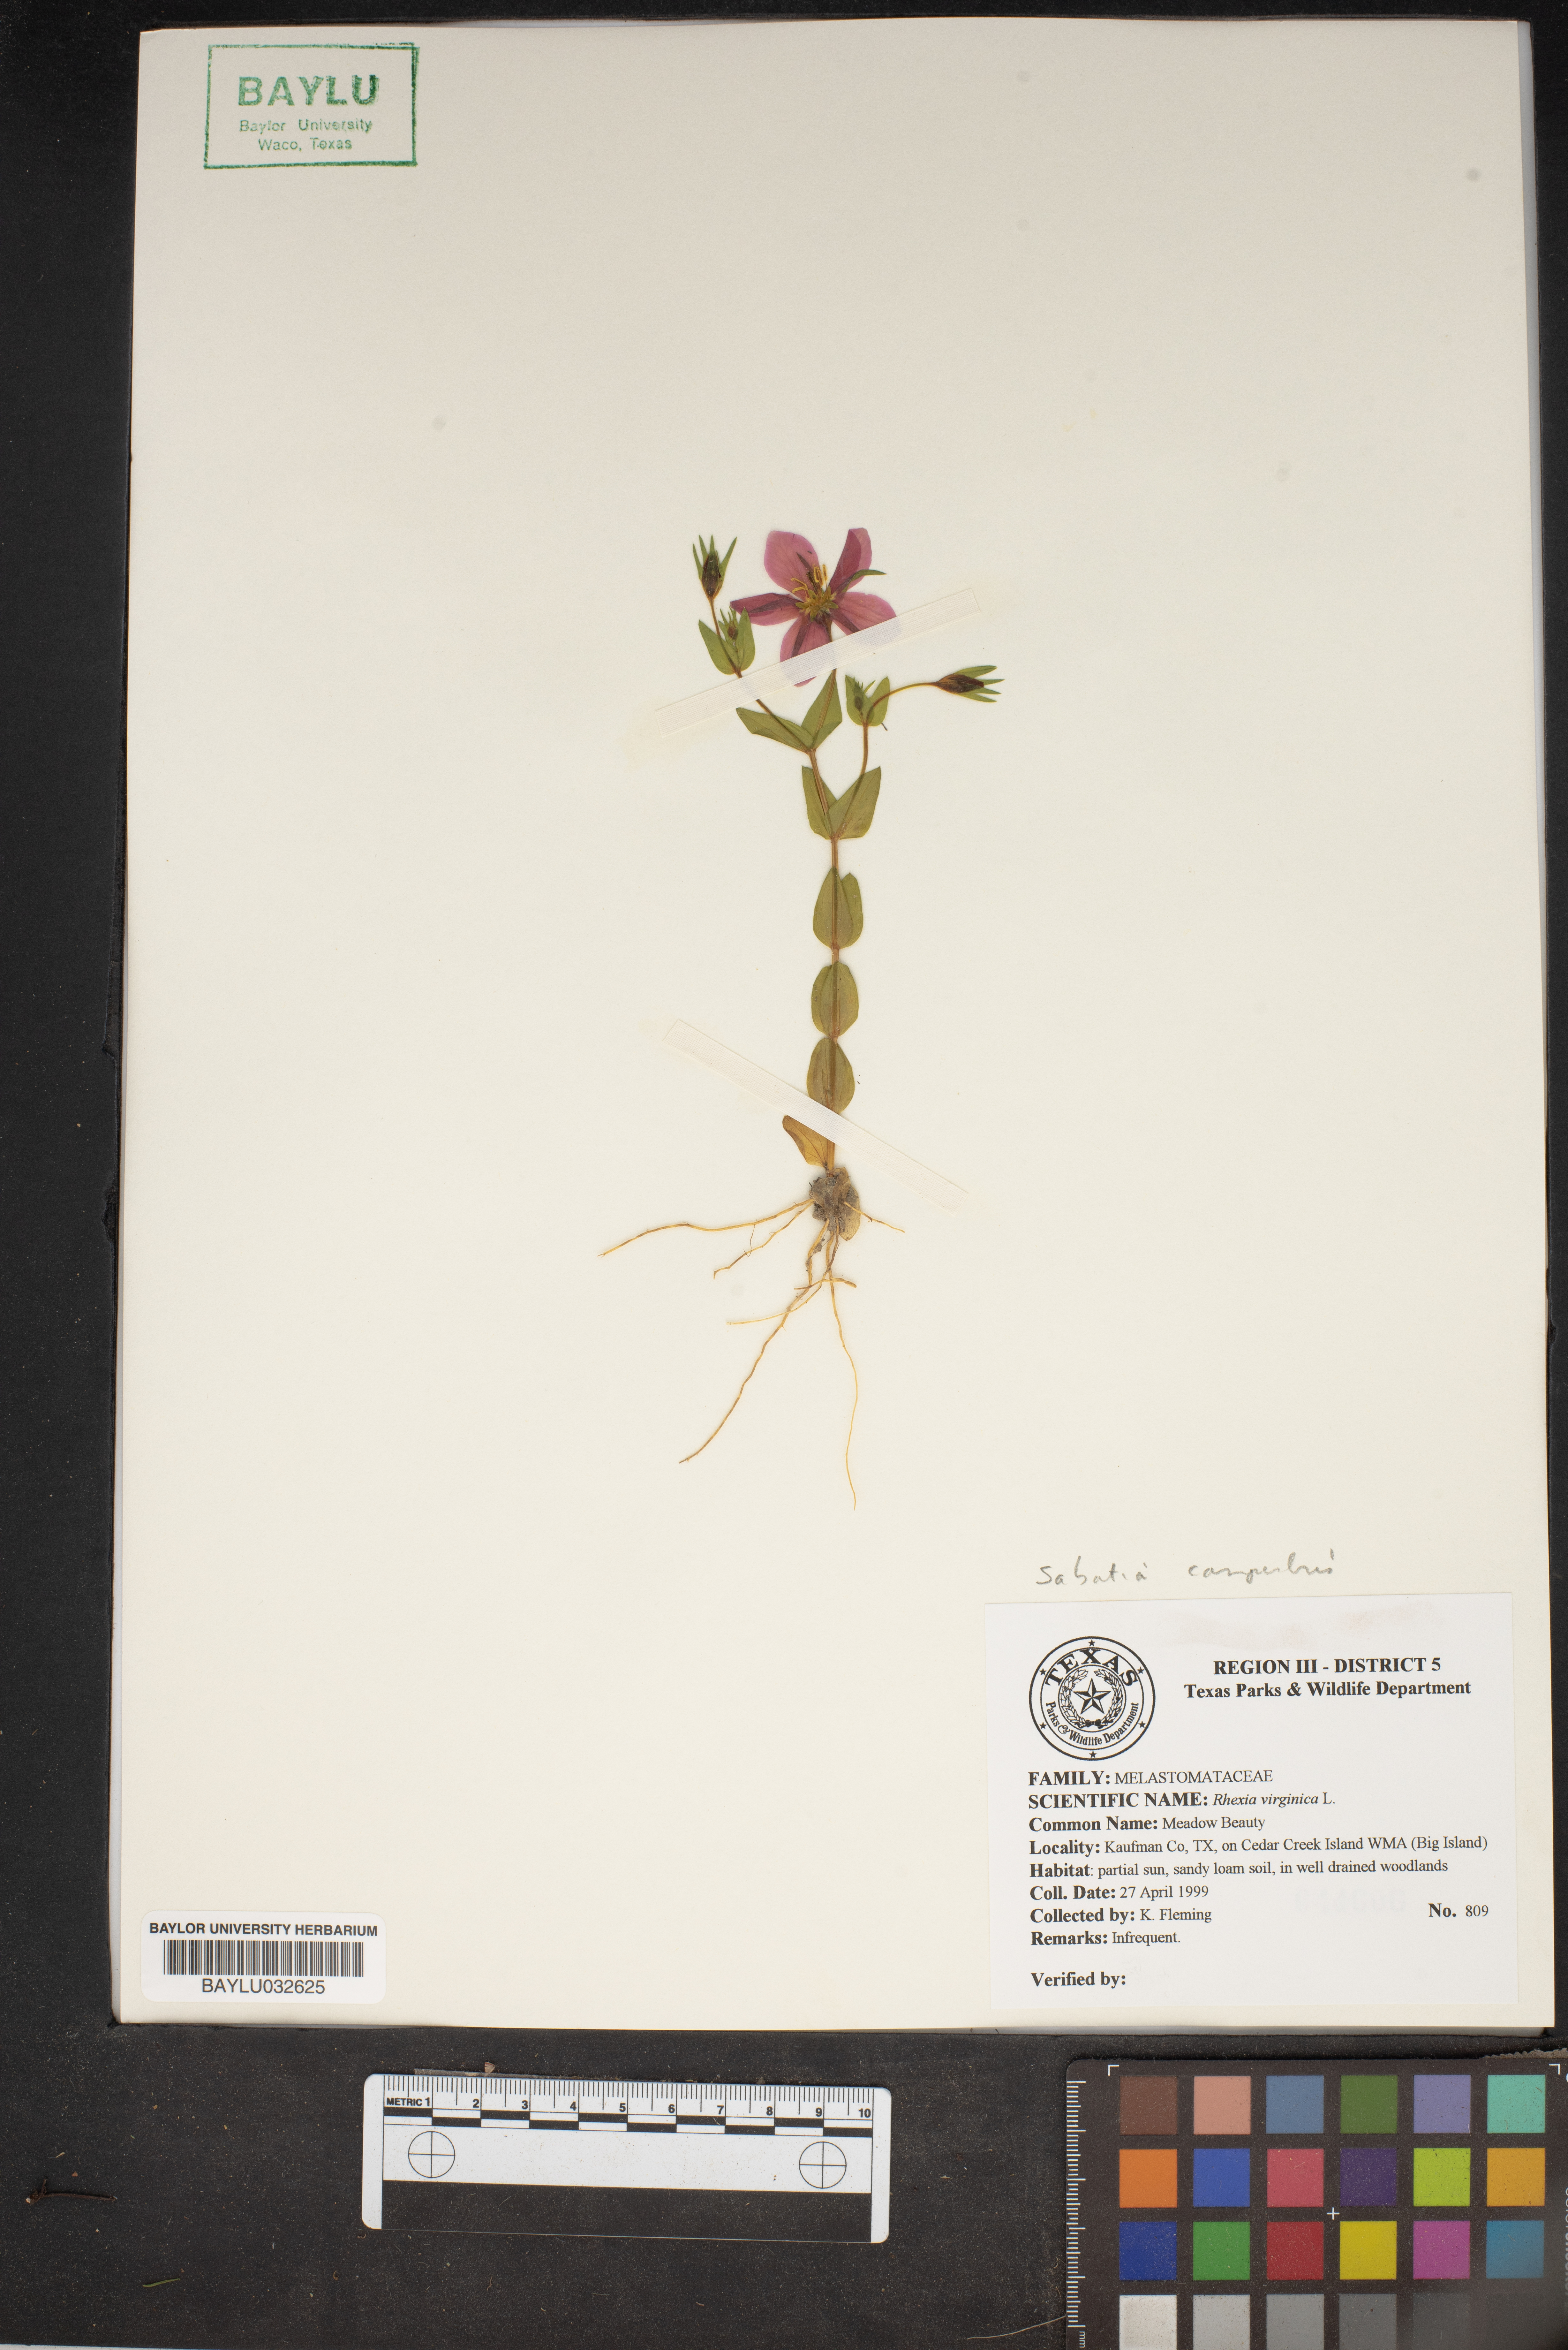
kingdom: Plantae
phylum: Tracheophyta
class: Magnoliopsida
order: Myrtales
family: Melastomataceae
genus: Rhexia
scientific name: Rhexia virginica
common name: Common meadow beauty
